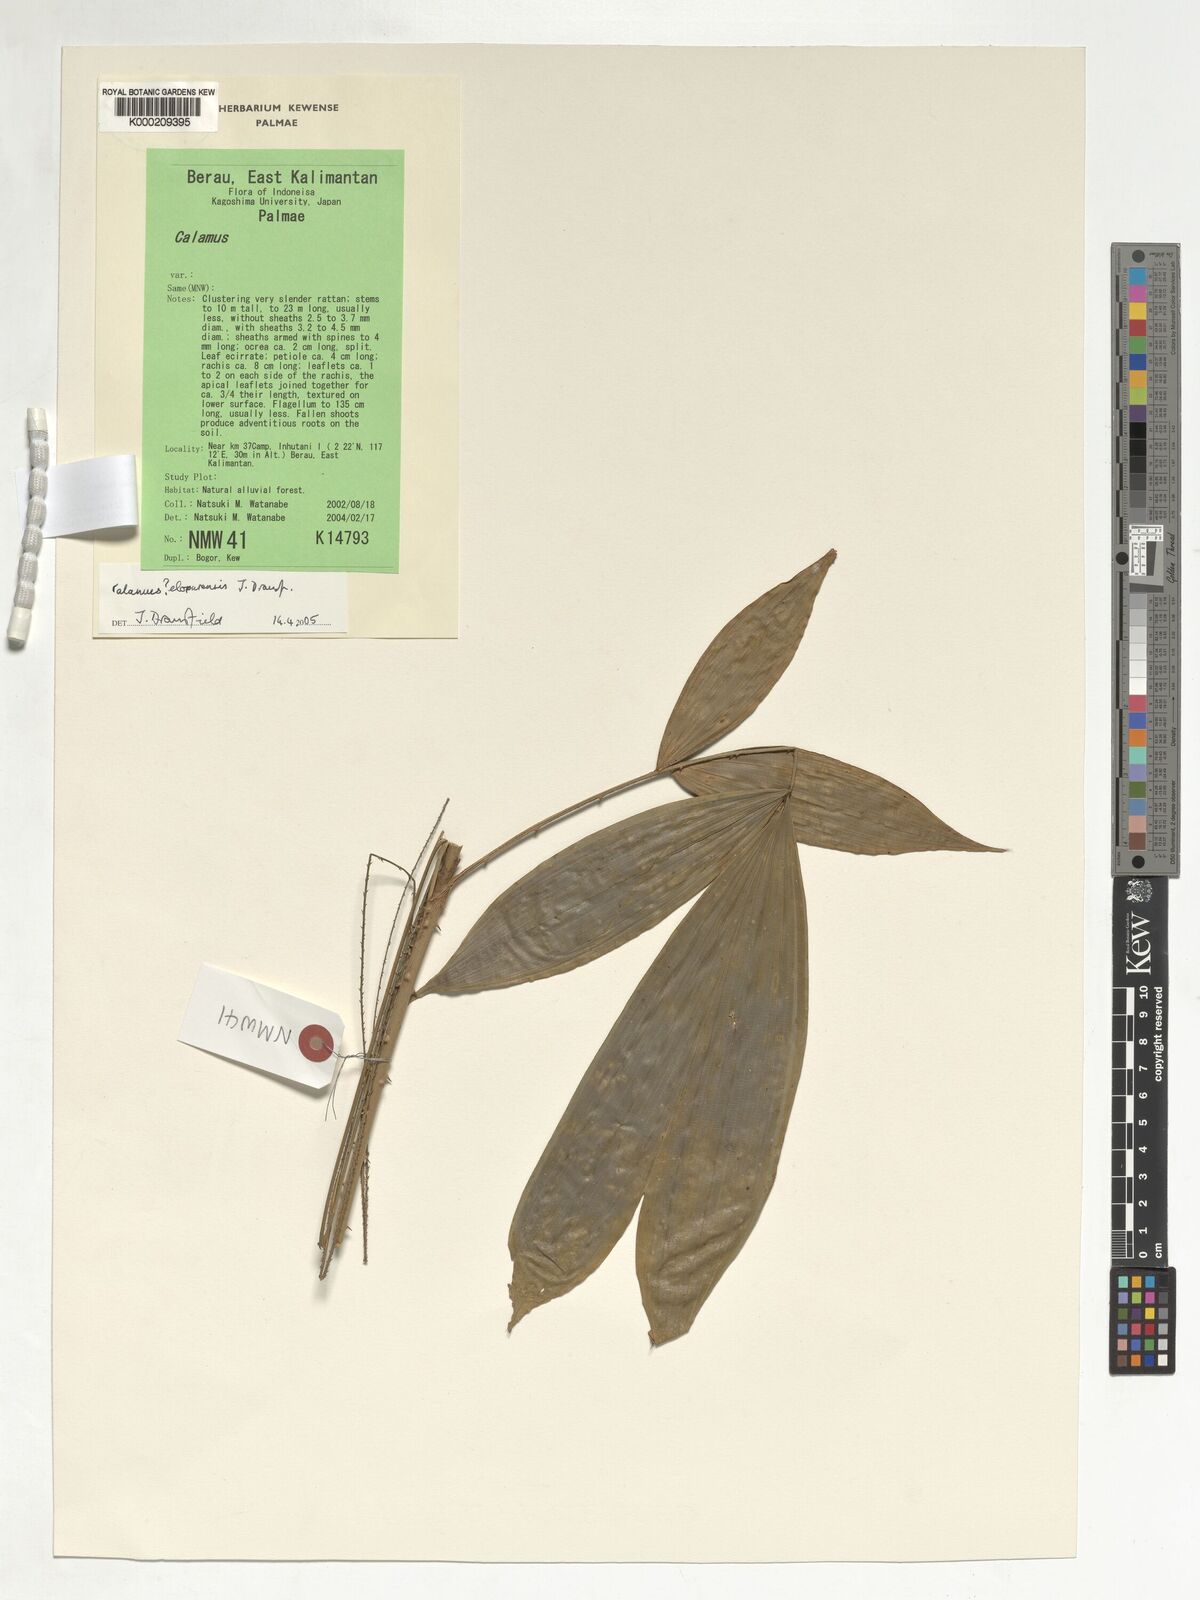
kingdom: Plantae
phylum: Tracheophyta
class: Liliopsida
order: Arecales
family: Arecaceae
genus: Calamus
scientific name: Calamus javensis
